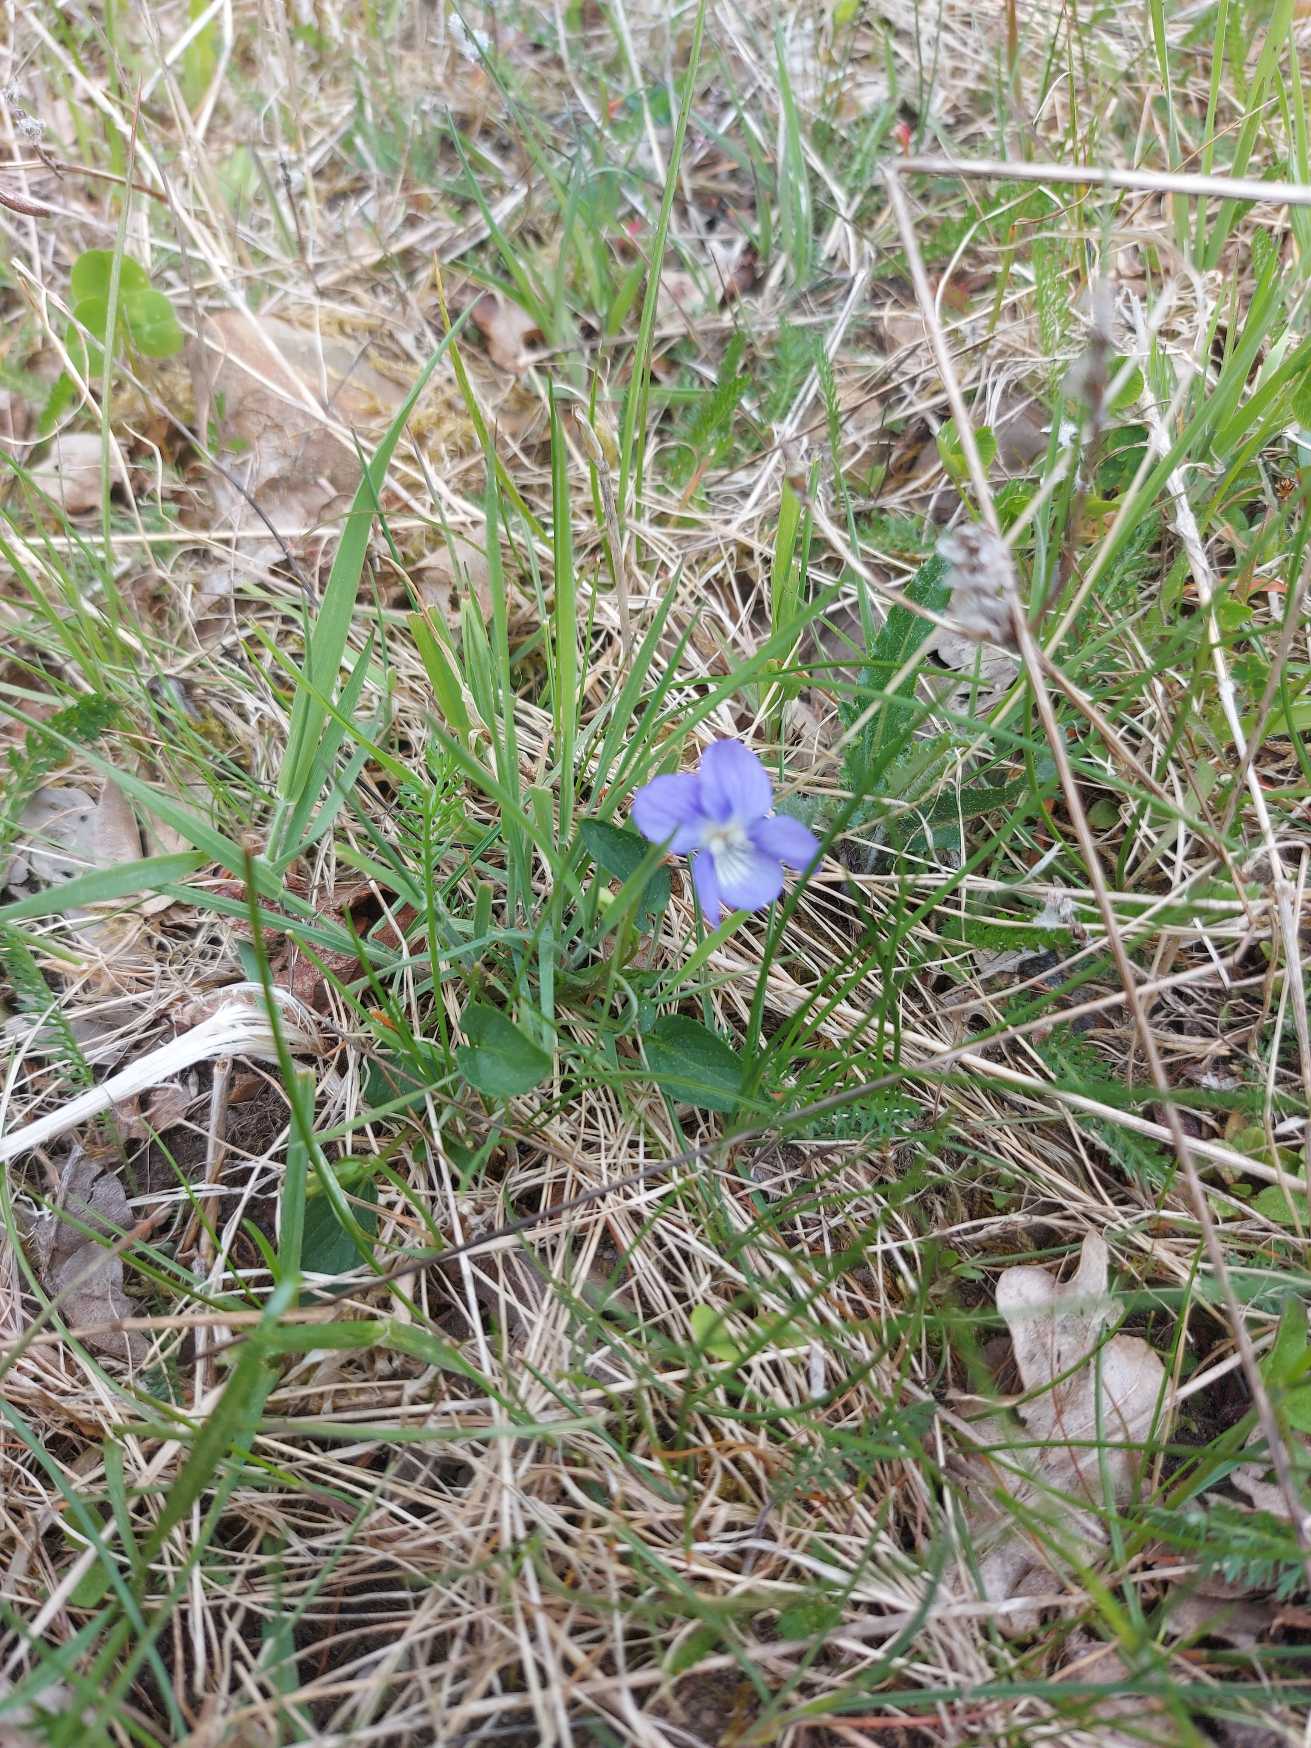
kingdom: Plantae
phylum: Tracheophyta
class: Magnoliopsida
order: Malpighiales
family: Violaceae
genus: Viola
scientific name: Viola canina
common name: Hunde-viol
